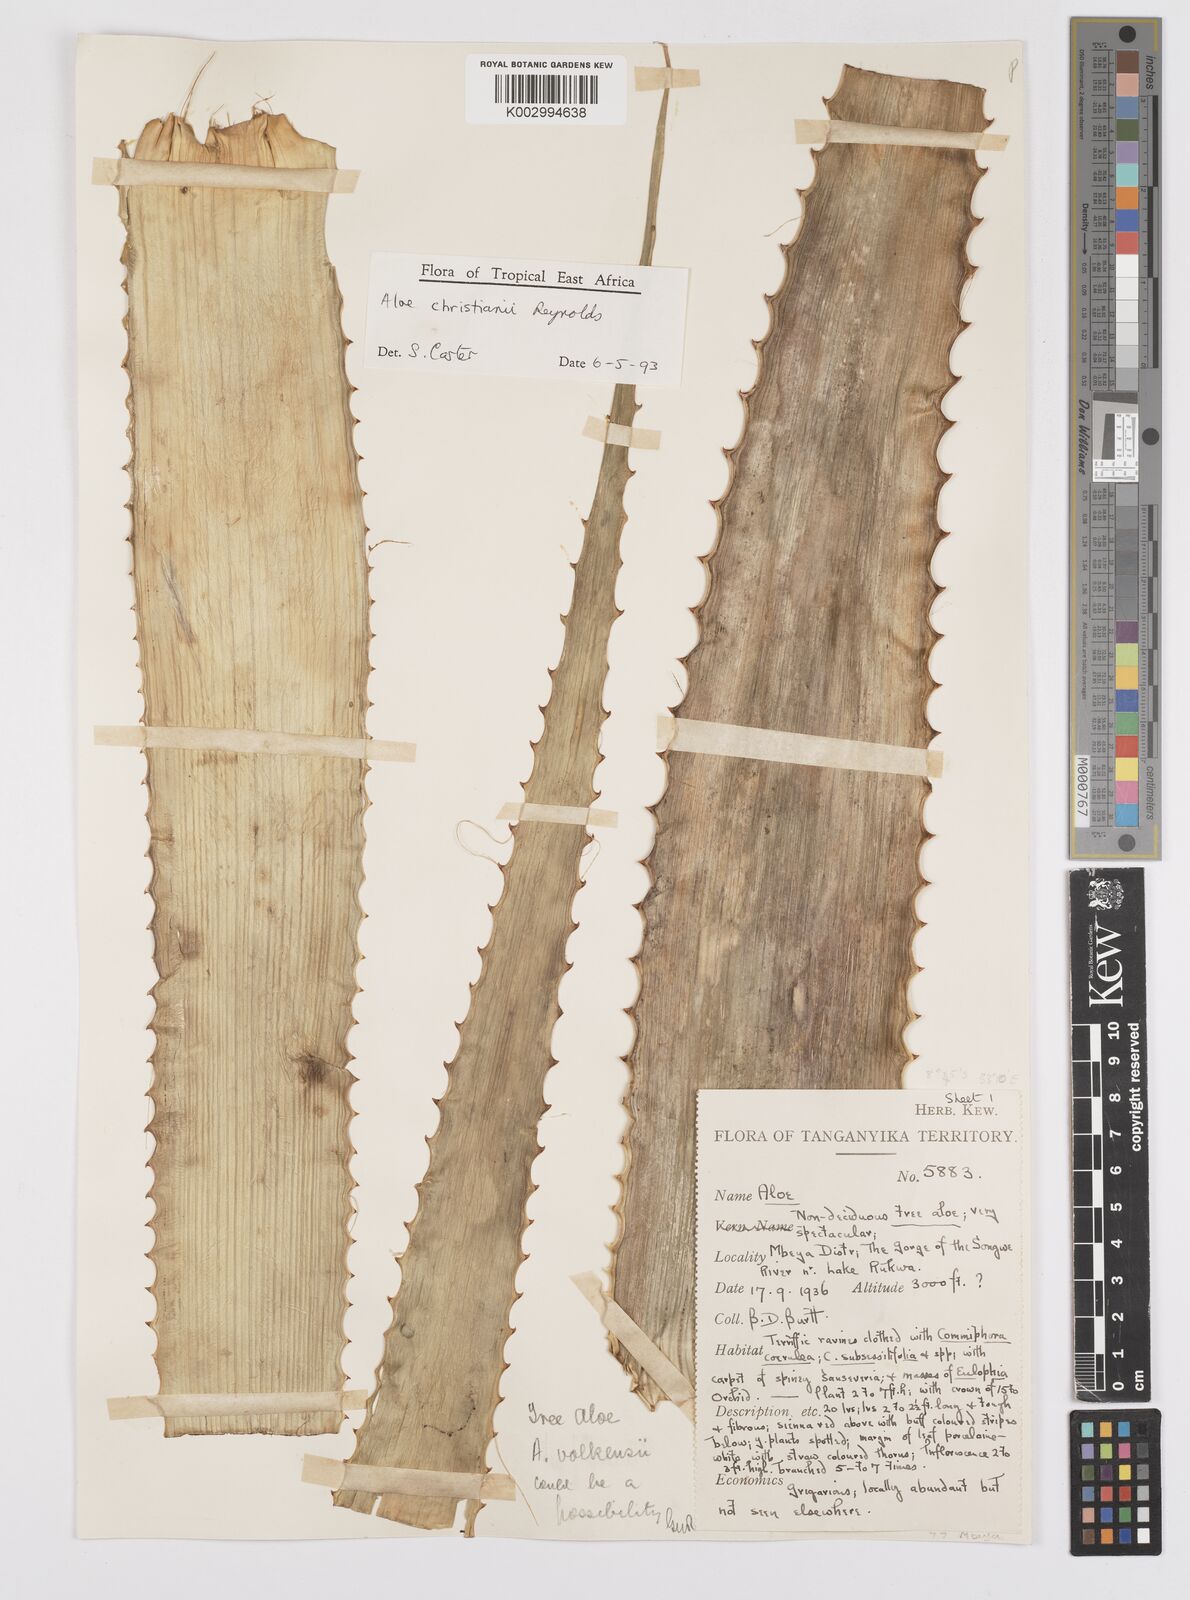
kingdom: Plantae
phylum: Tracheophyta
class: Liliopsida
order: Asparagales
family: Asphodelaceae
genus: Aloe
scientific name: Aloe christianii
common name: Basil christian's aloe
